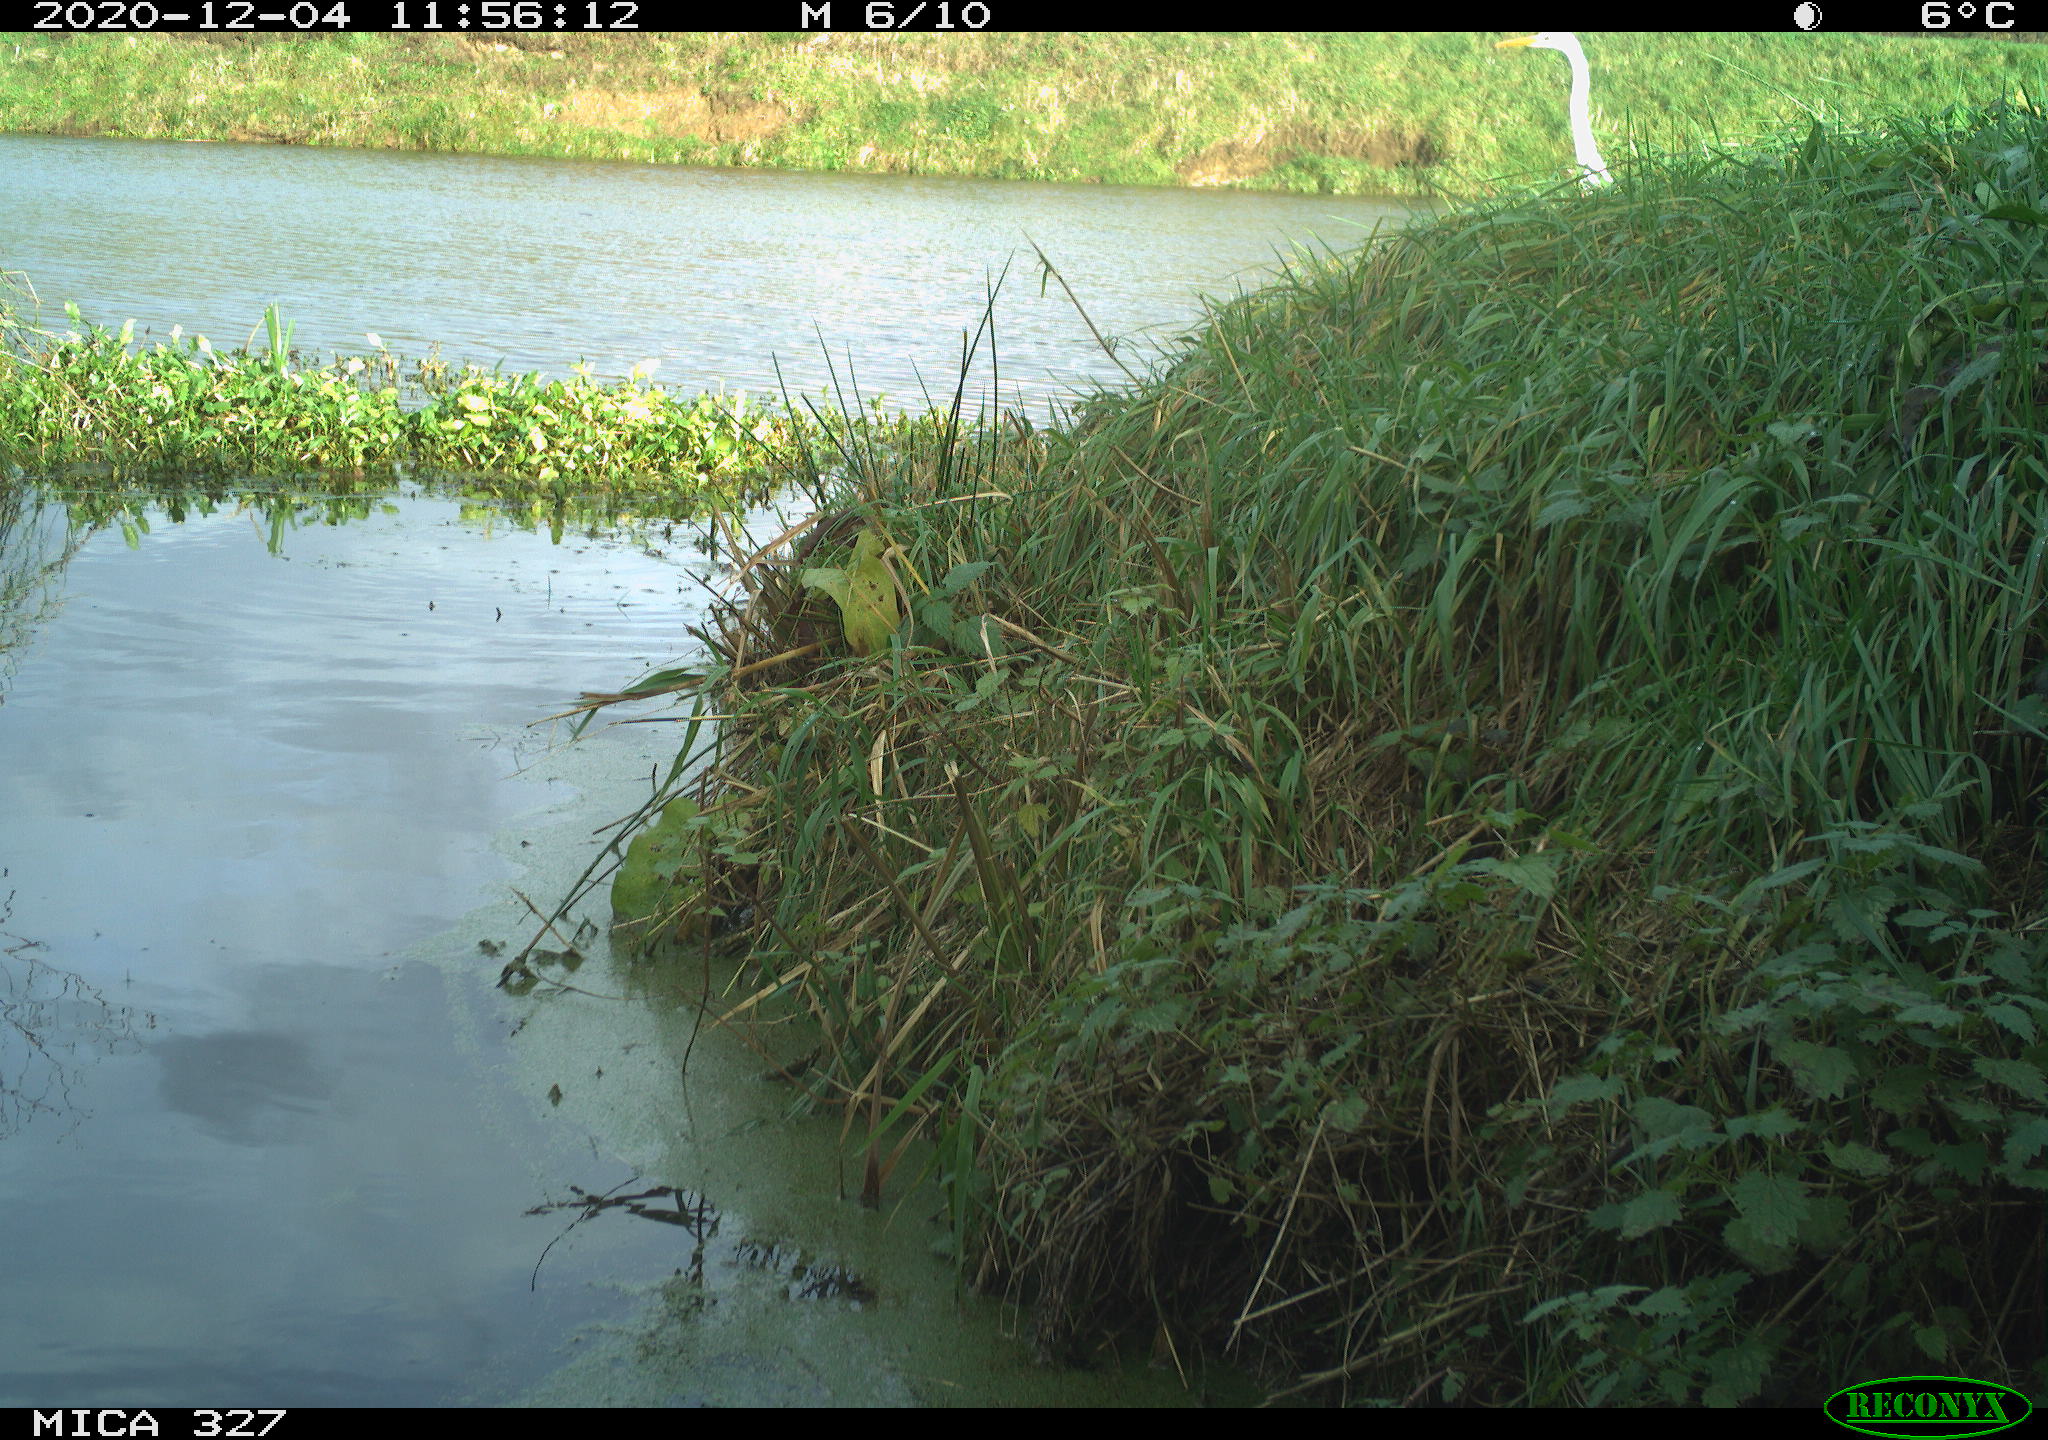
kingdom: Animalia
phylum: Chordata
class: Aves
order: Pelecaniformes
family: Ardeidae
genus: Ardea
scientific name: Ardea alba
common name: Great egret
